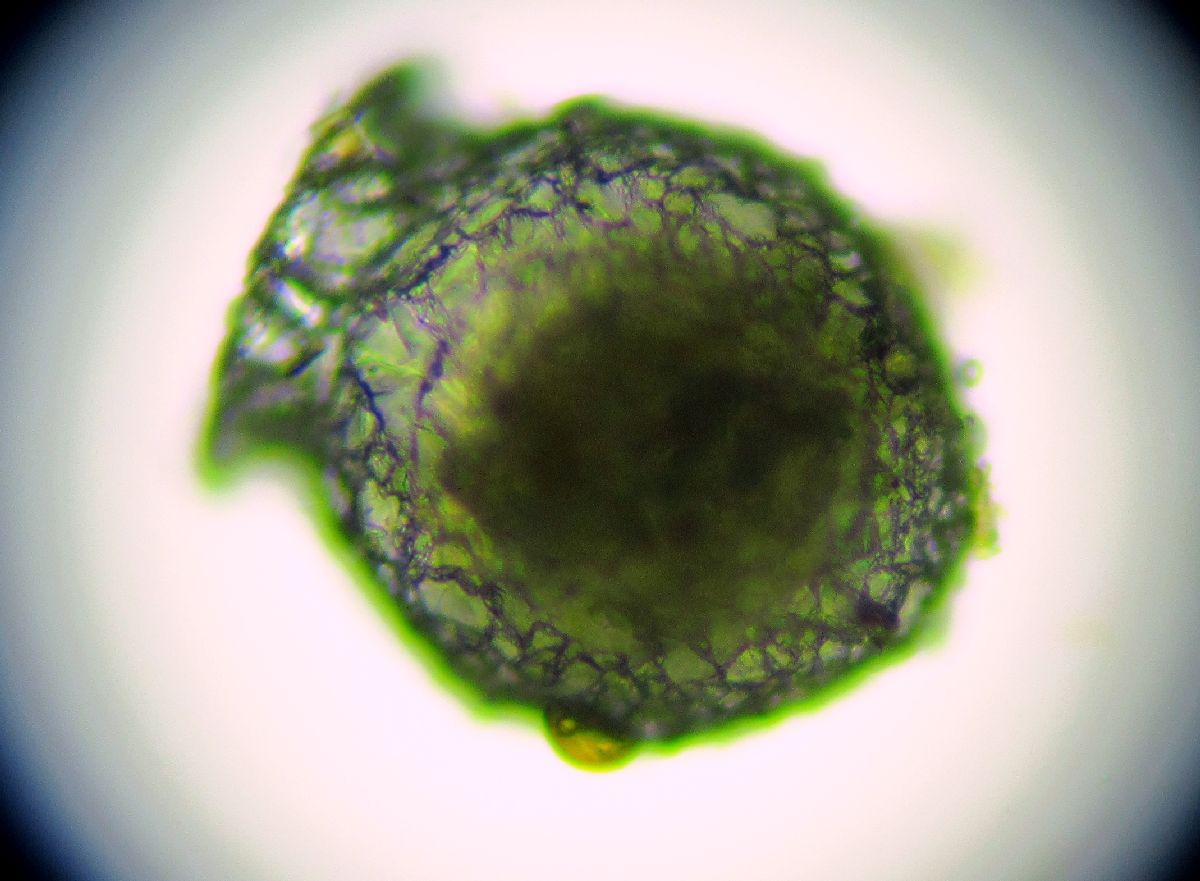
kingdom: Protozoa
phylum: Amoebozoa
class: Lobosa
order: Arcellinida
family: Difflugiidae
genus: Difflugia
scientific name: Difflugia
